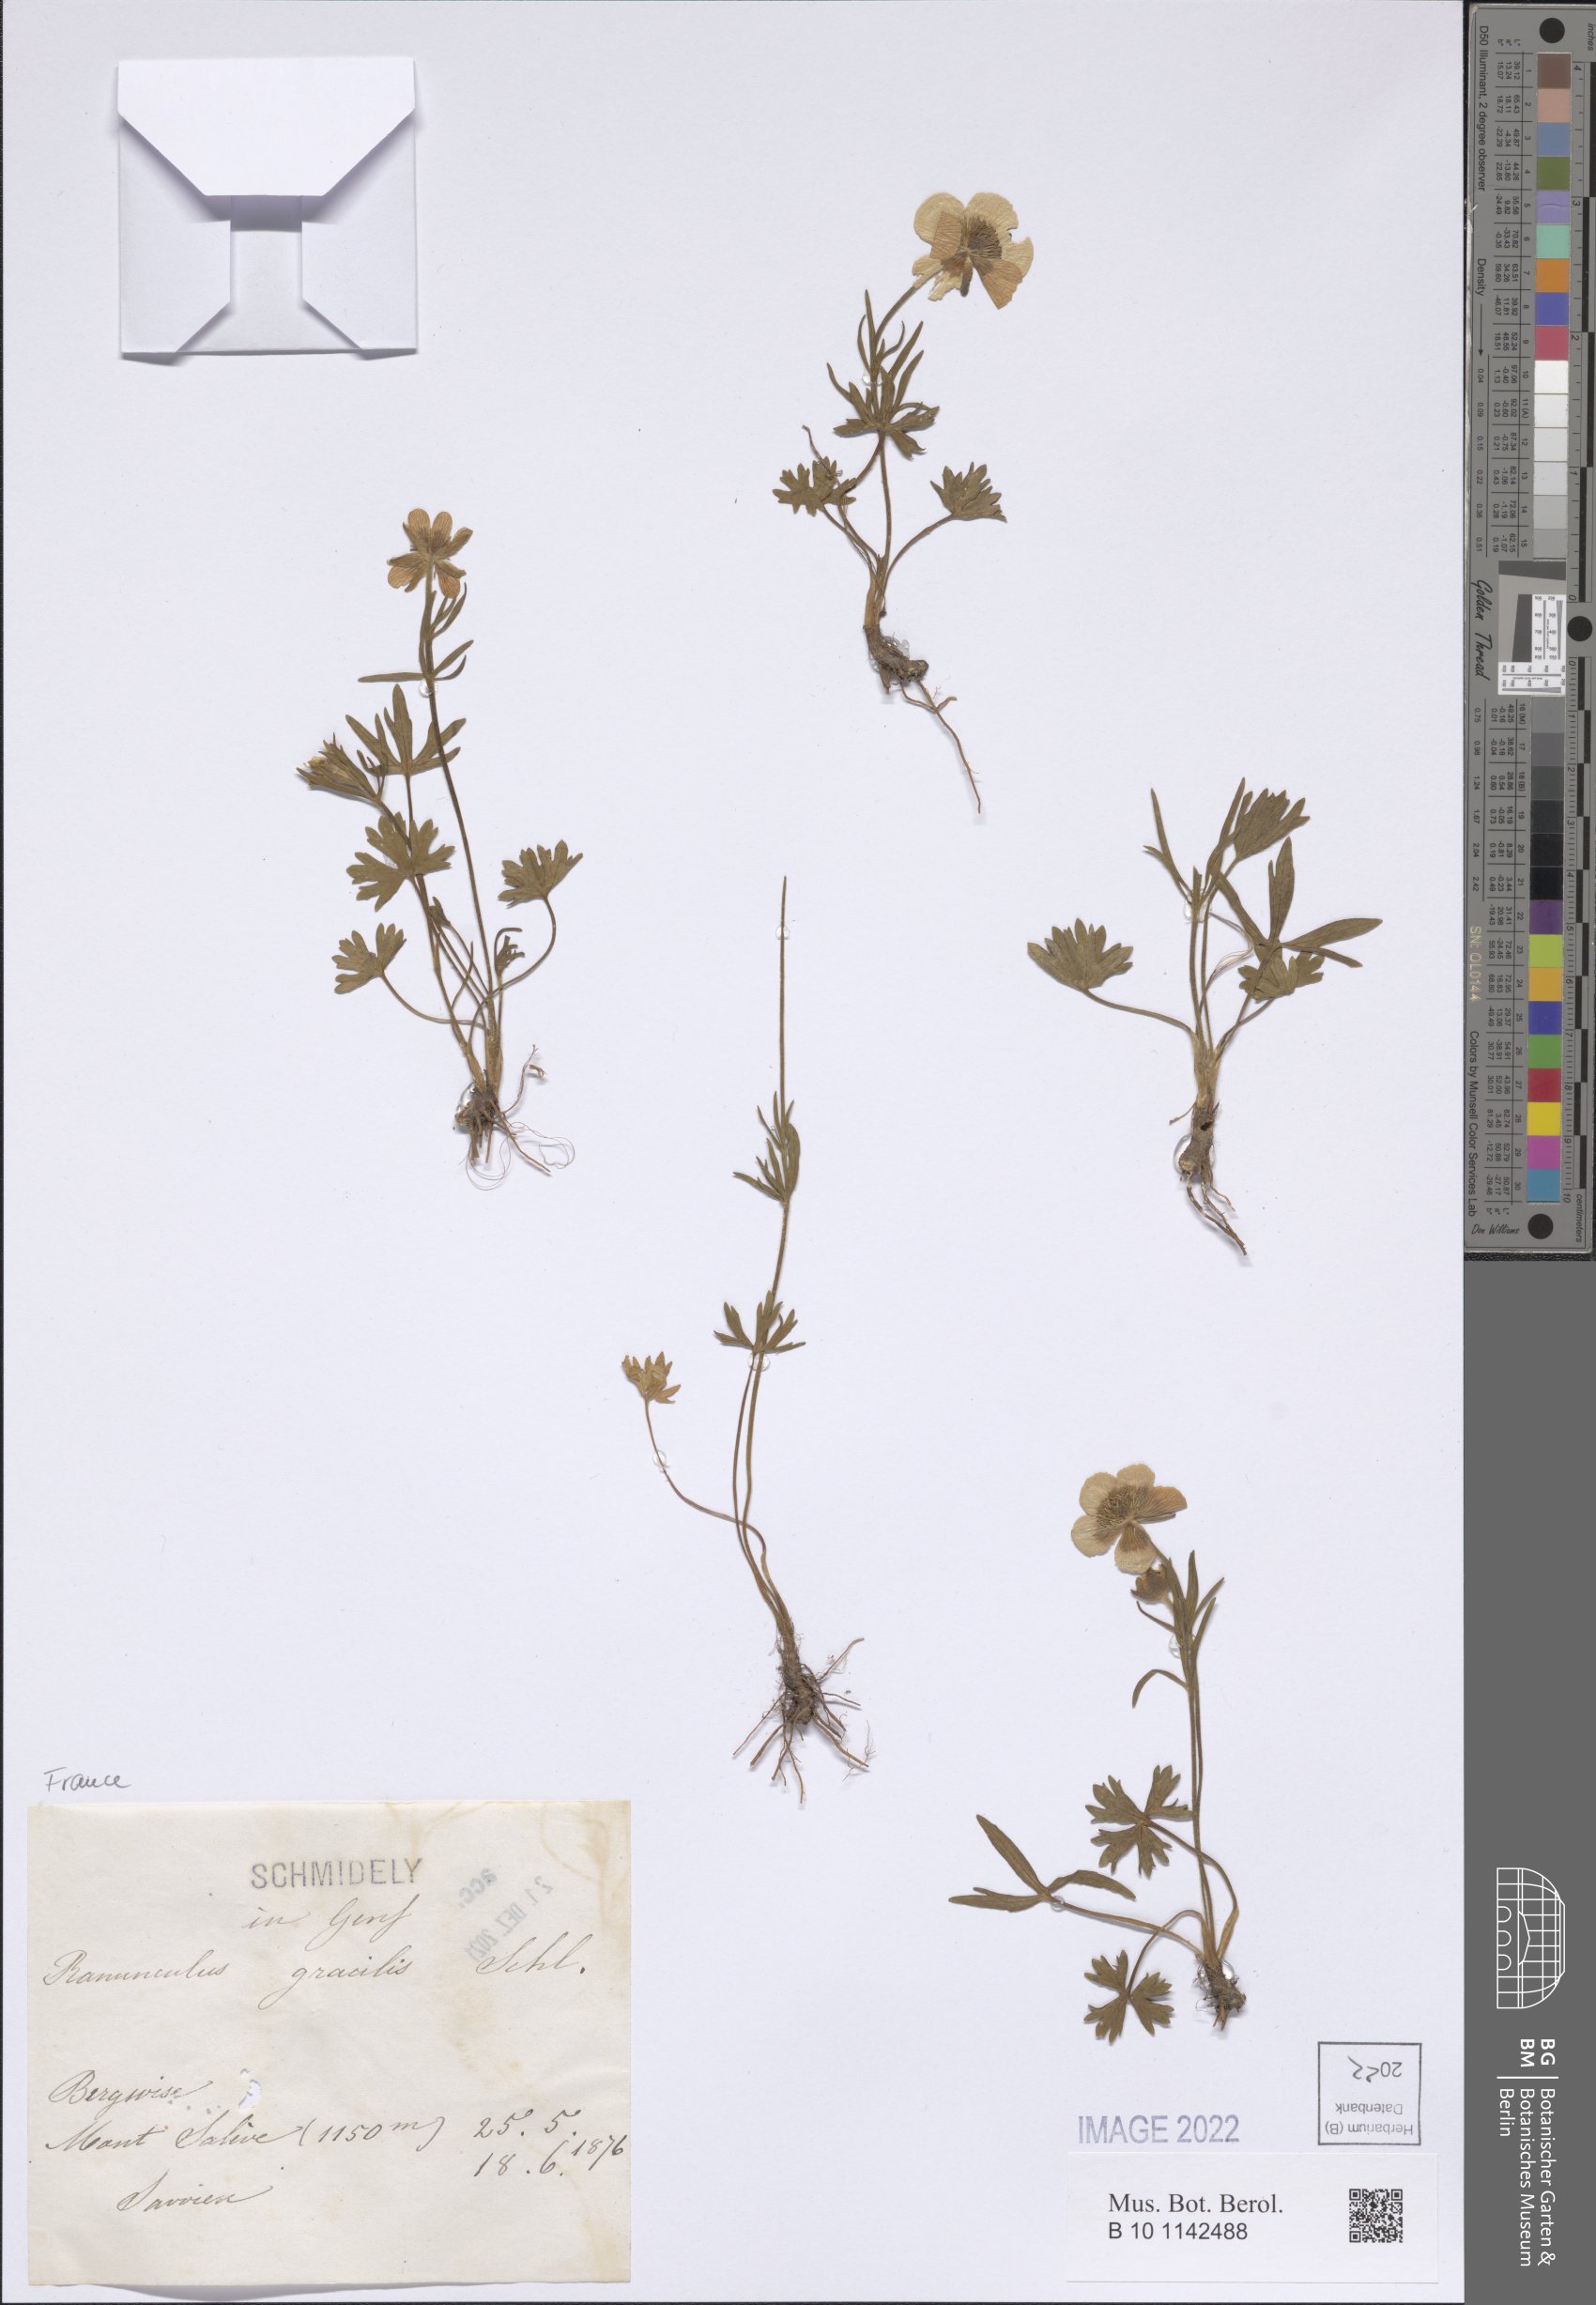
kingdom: Plantae
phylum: Tracheophyta
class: Magnoliopsida
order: Ranunculales
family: Ranunculaceae
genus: Ranunculus
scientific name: Ranunculus gracilis
